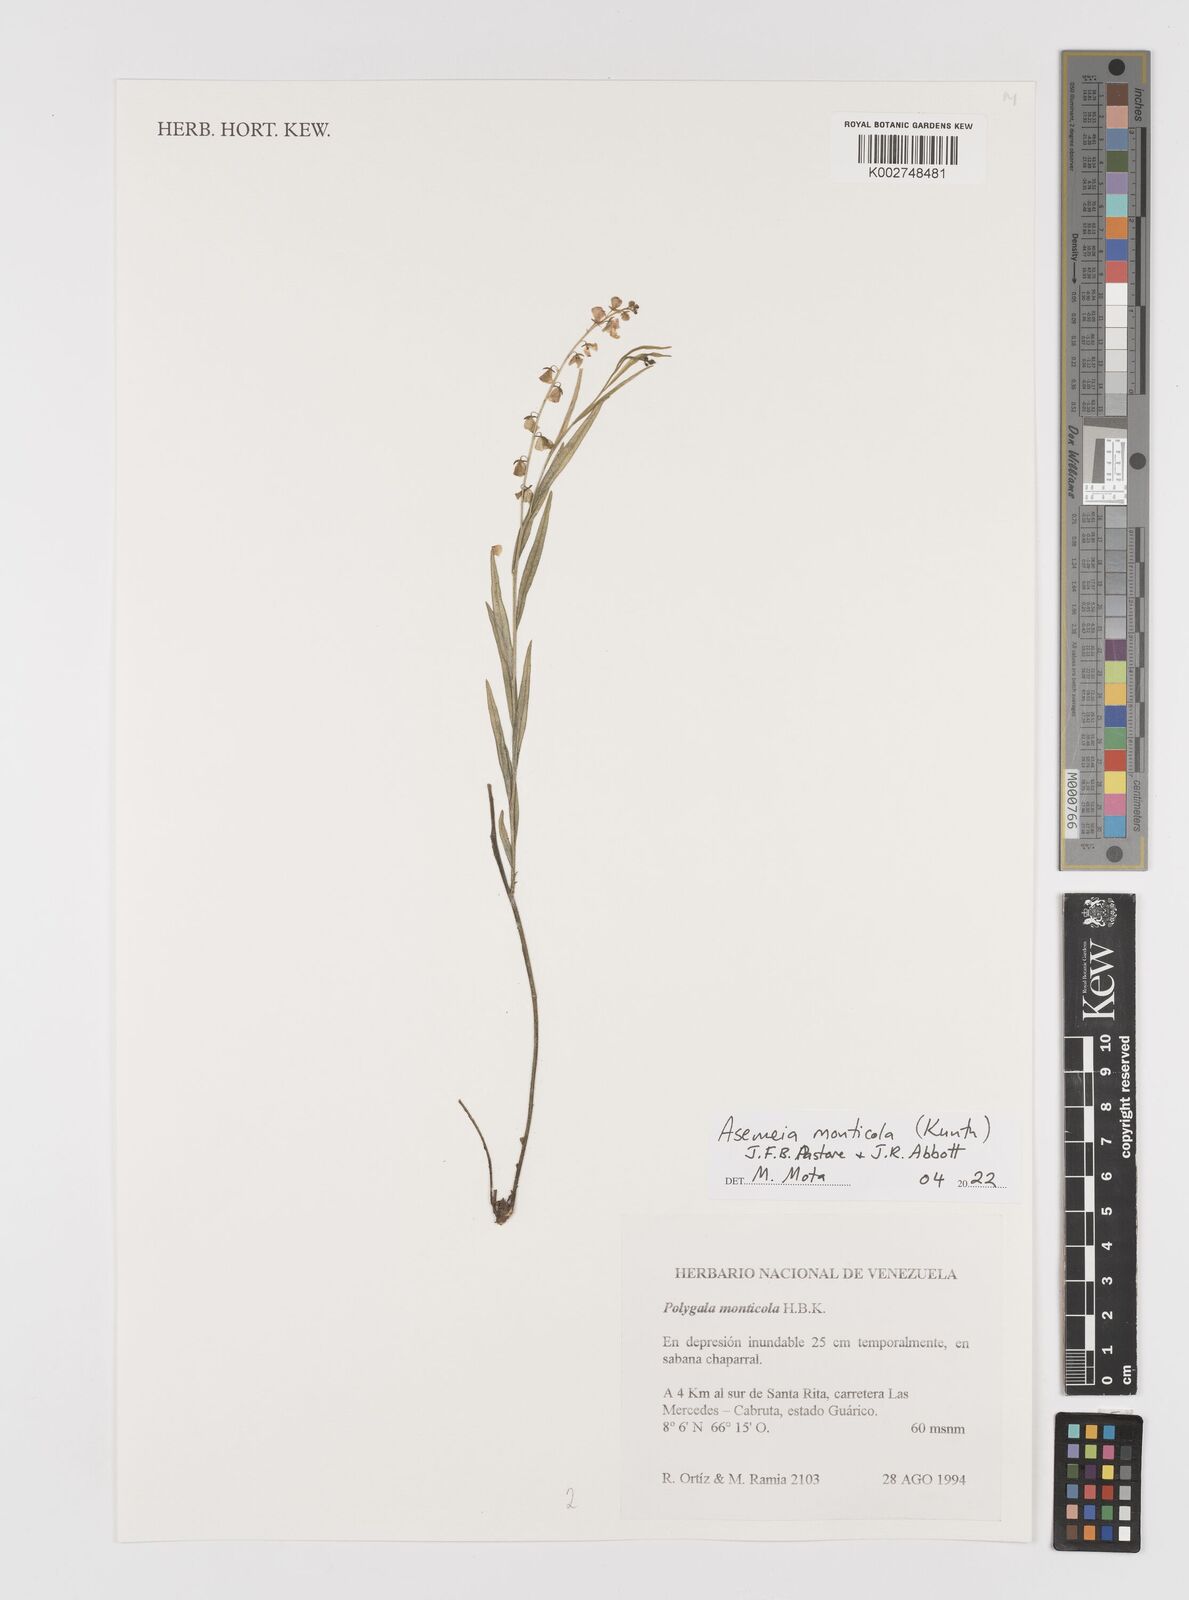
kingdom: Plantae
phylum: Tracheophyta
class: Magnoliopsida
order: Fabales
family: Polygalaceae
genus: Asemeia
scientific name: Asemeia monticola
